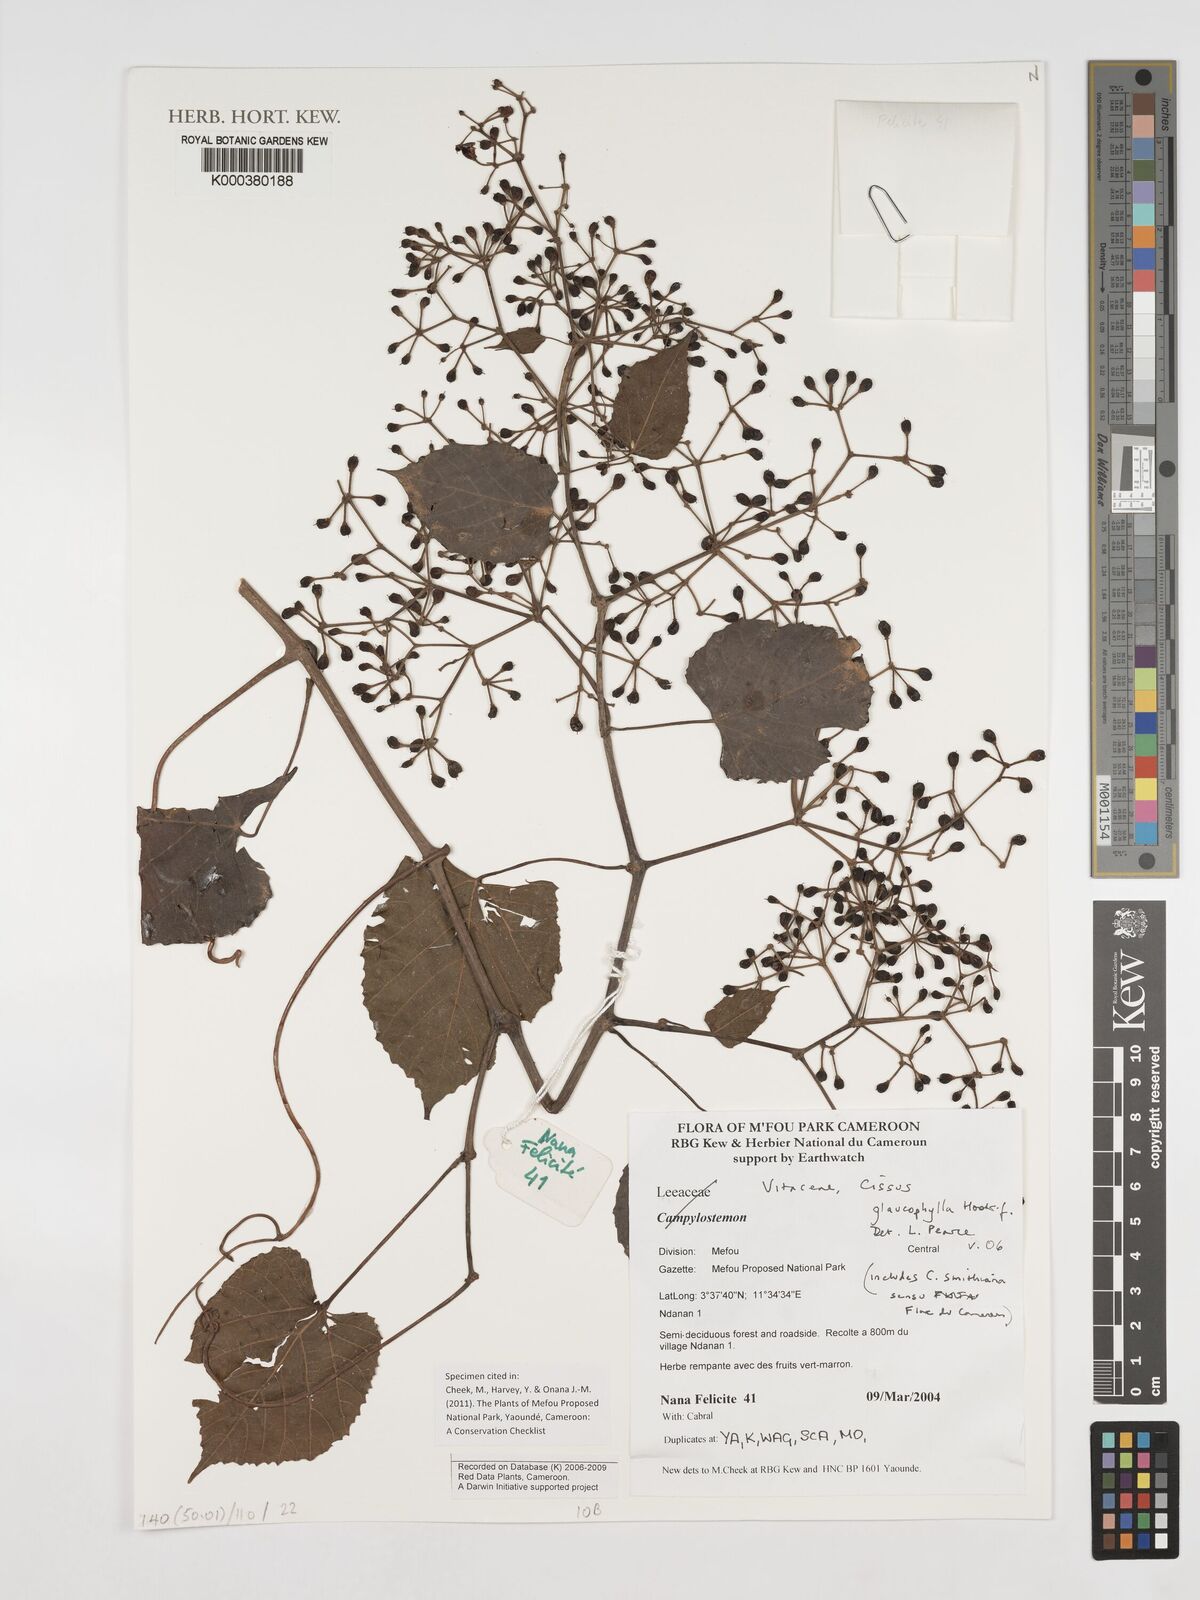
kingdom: Plantae
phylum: Tracheophyta
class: Magnoliopsida
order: Vitales
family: Vitaceae
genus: Cissus
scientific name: Cissus glaucophylla
